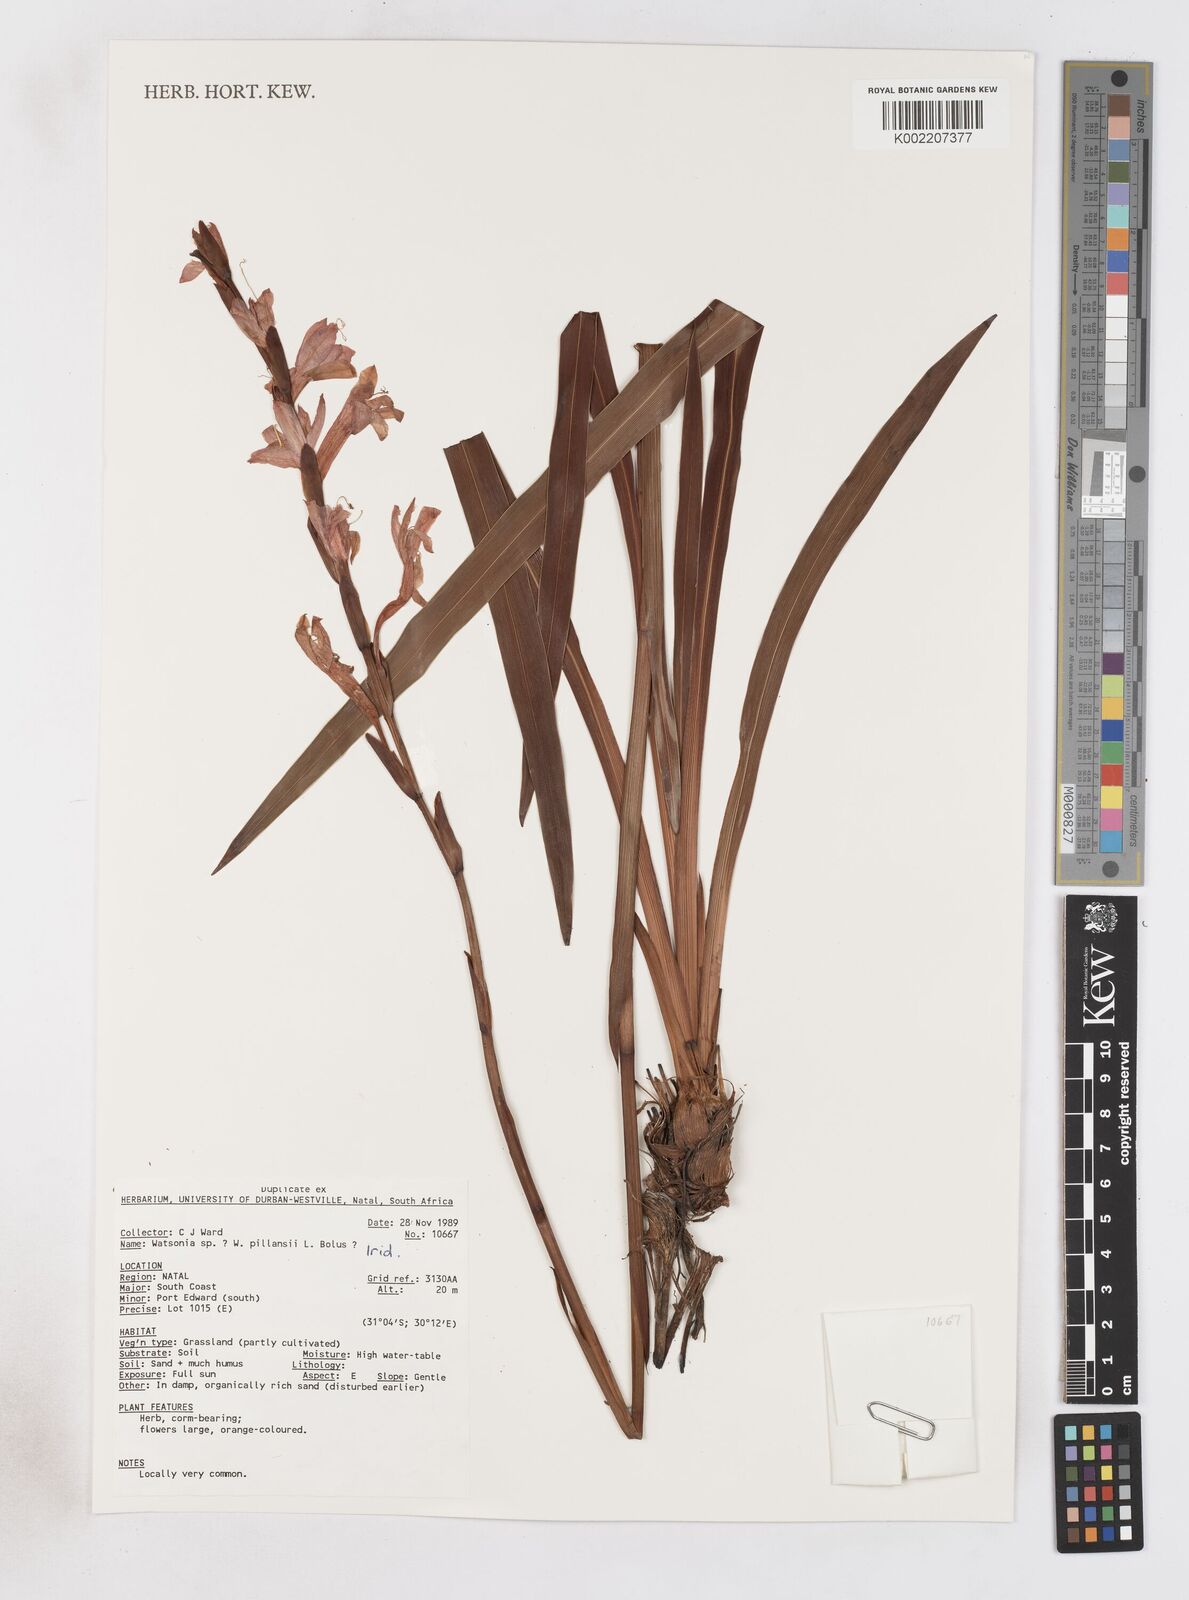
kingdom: Plantae
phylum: Tracheophyta
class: Liliopsida
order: Asparagales
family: Iridaceae
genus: Watsonia
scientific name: Watsonia pillansii
